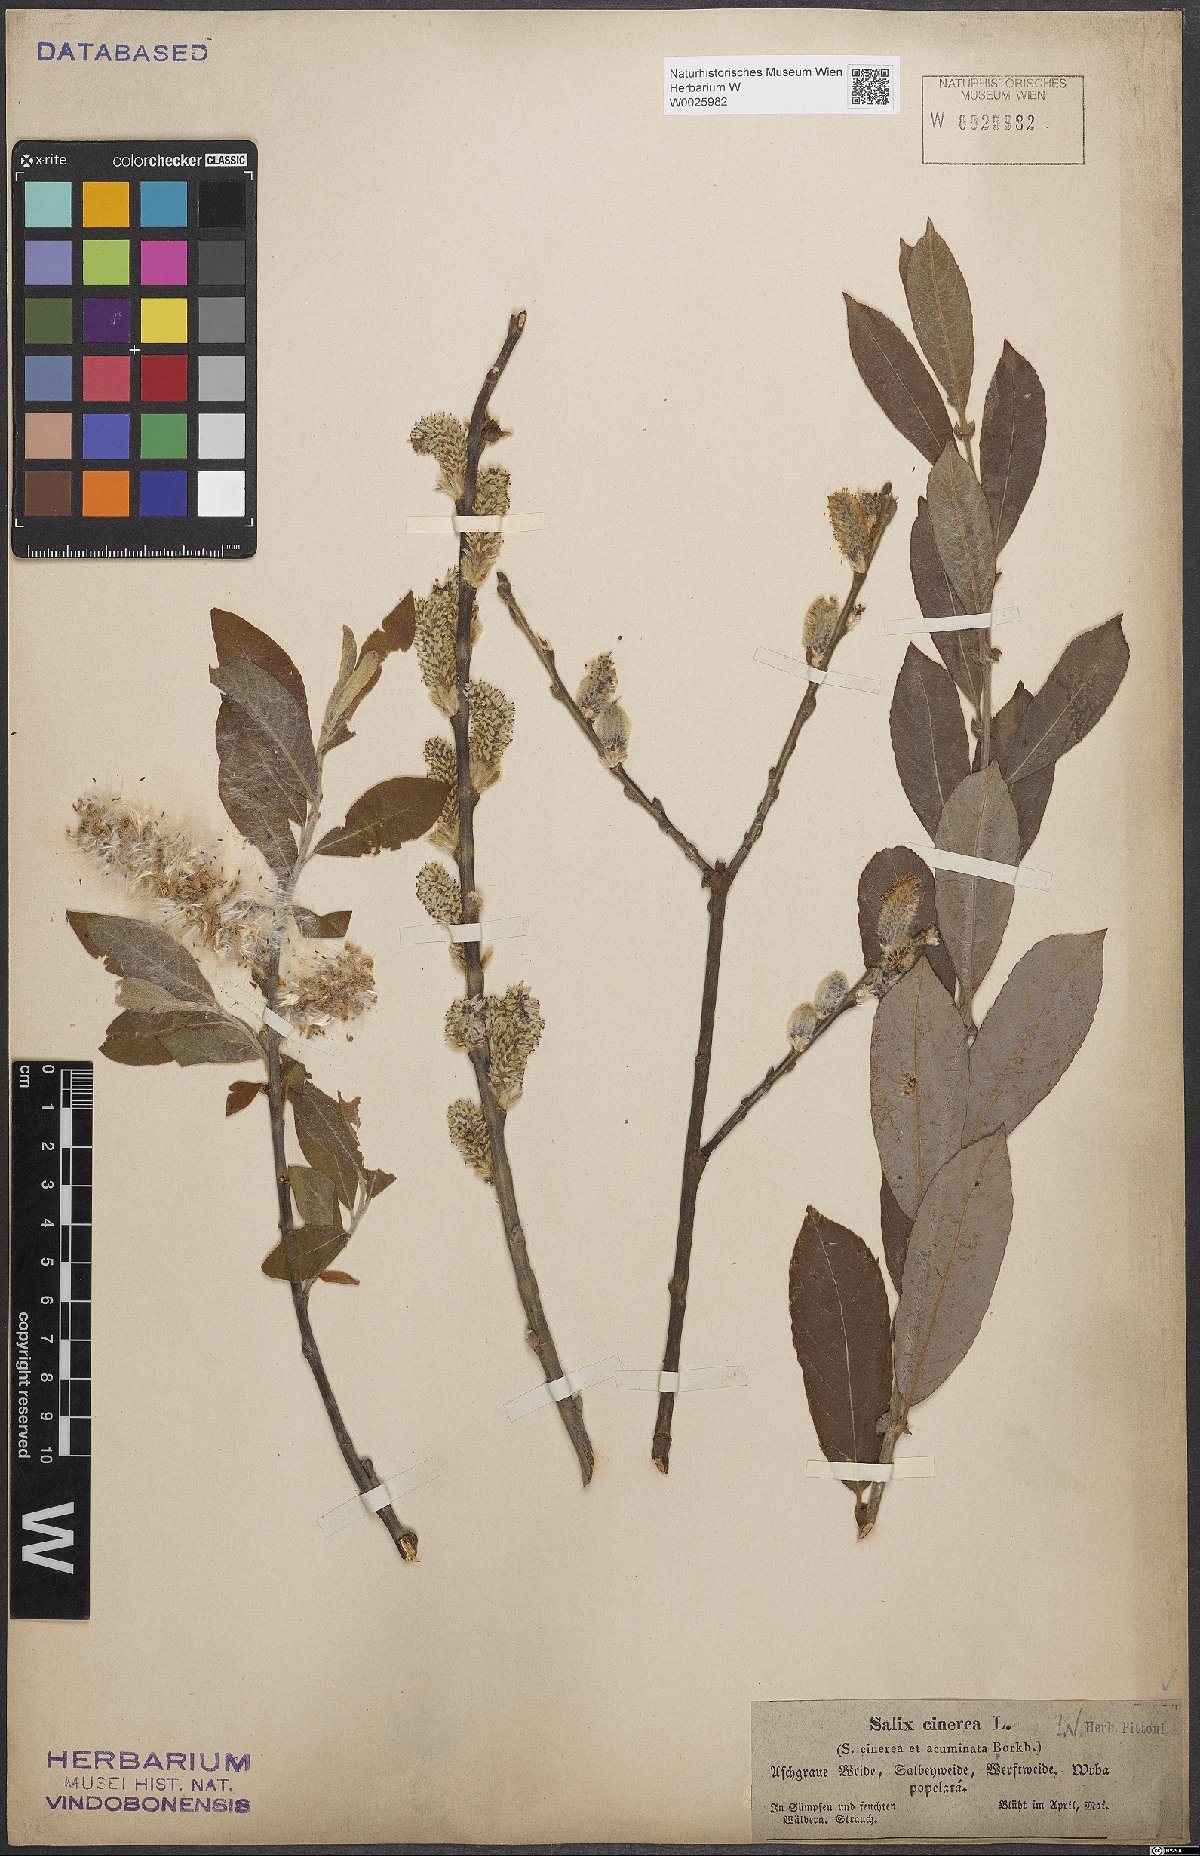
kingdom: Plantae
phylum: Tracheophyta
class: Magnoliopsida
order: Malpighiales
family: Salicaceae
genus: Salix
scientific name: Salix cinerea
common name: Common sallow
